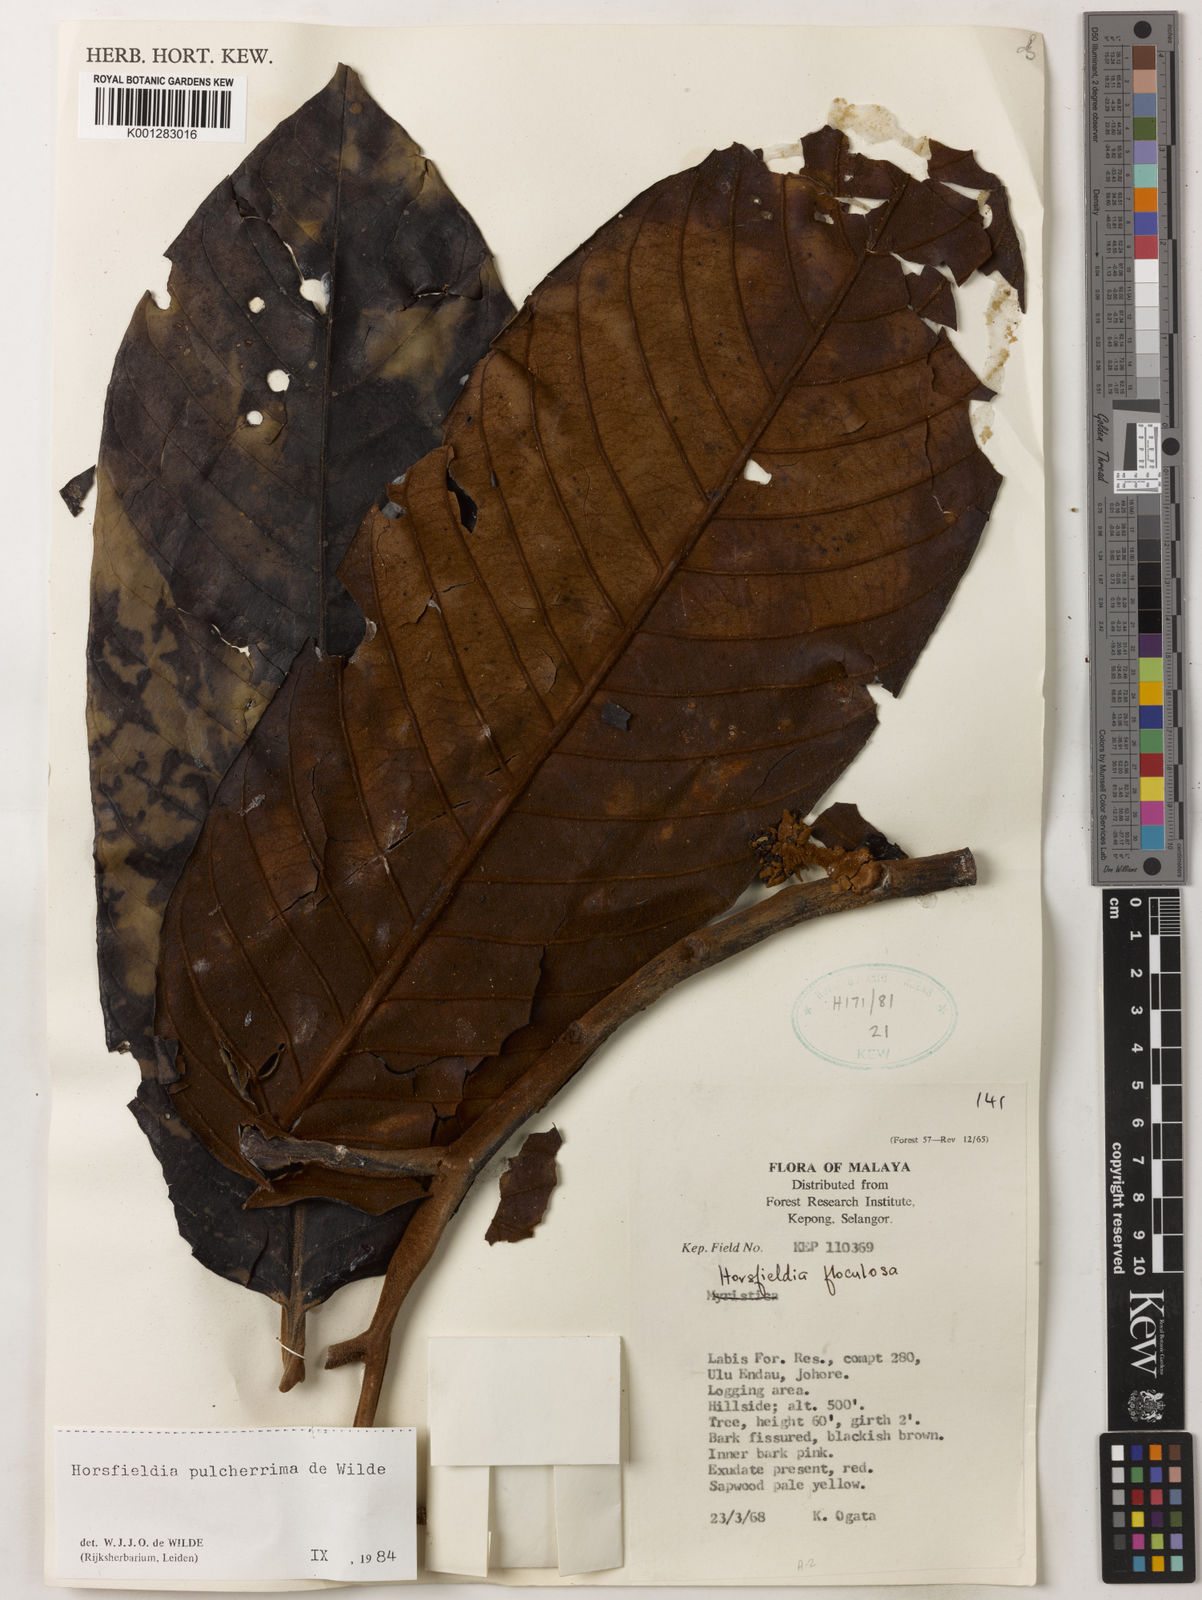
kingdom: Plantae
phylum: Tracheophyta
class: Magnoliopsida
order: Magnoliales
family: Myristicaceae
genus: Horsfieldia
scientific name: Horsfieldia pulcherrima
